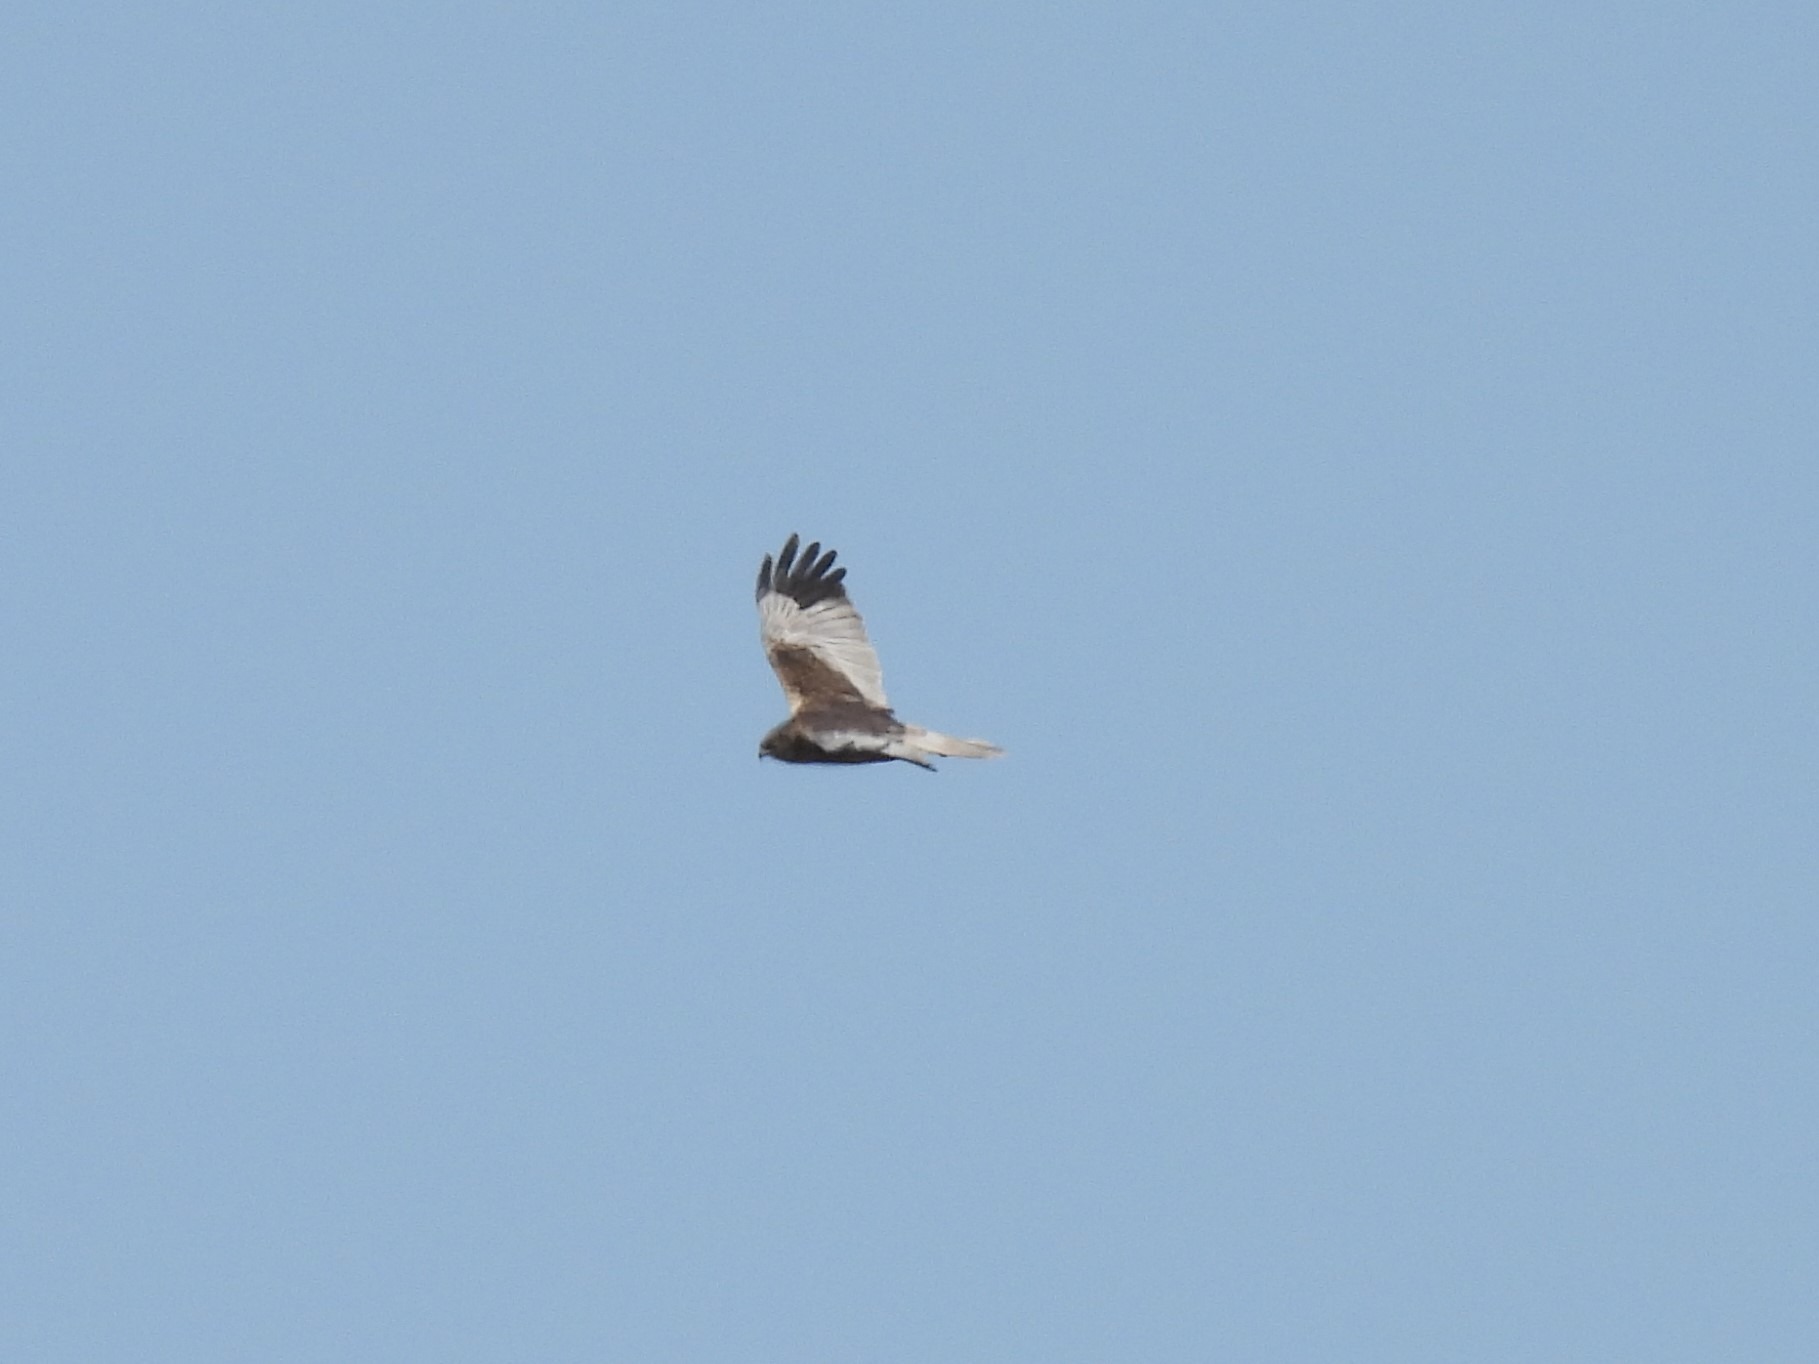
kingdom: Animalia
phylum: Chordata
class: Aves
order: Accipitriformes
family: Accipitridae
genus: Circus
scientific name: Circus aeruginosus
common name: Rørhøg
